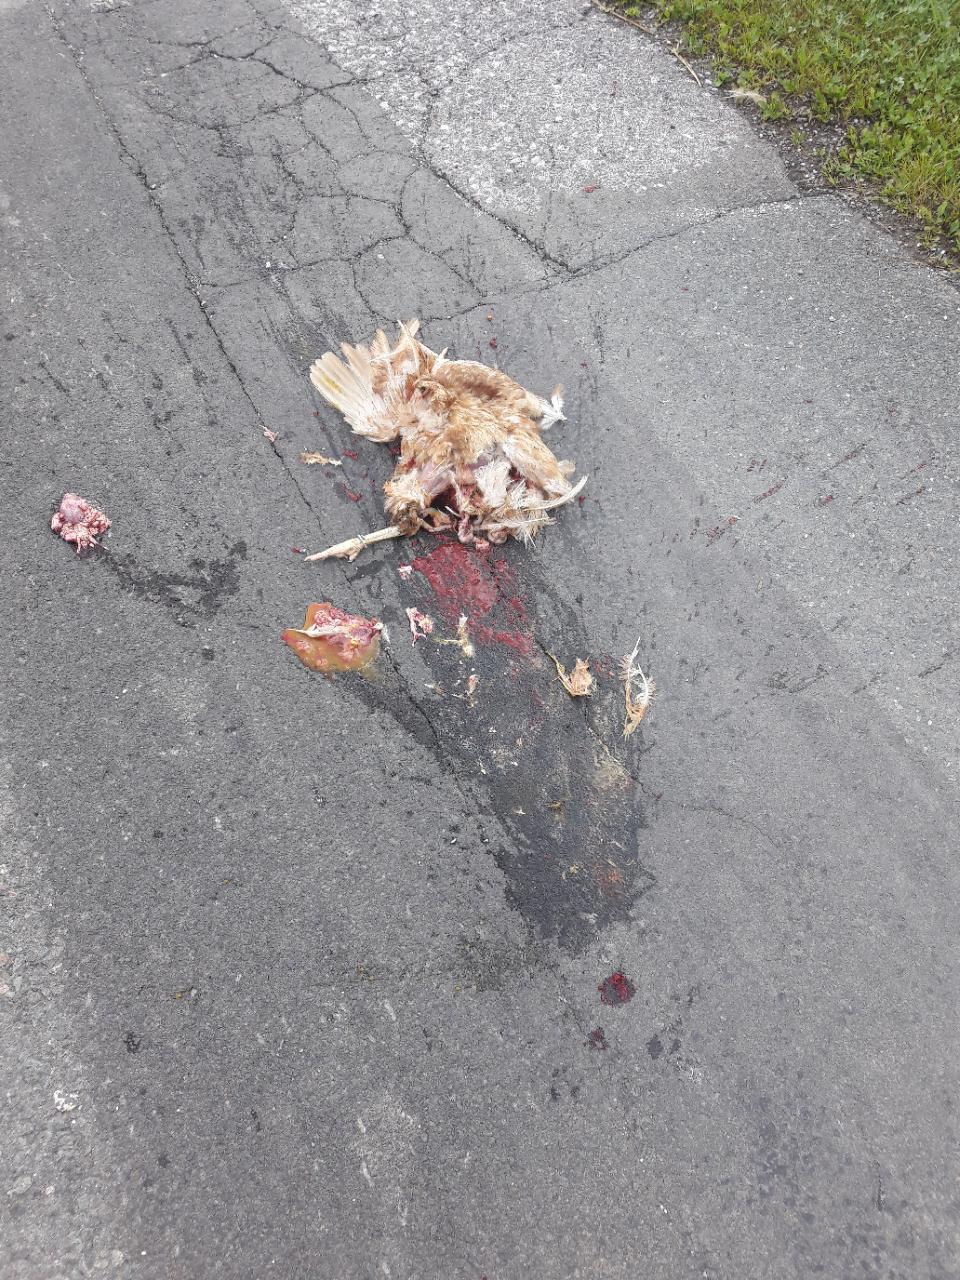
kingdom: Animalia
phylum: Chordata
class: Aves
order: Galliformes
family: Phasianidae
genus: Gallus
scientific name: Gallus gallus
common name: Red junglefowl
